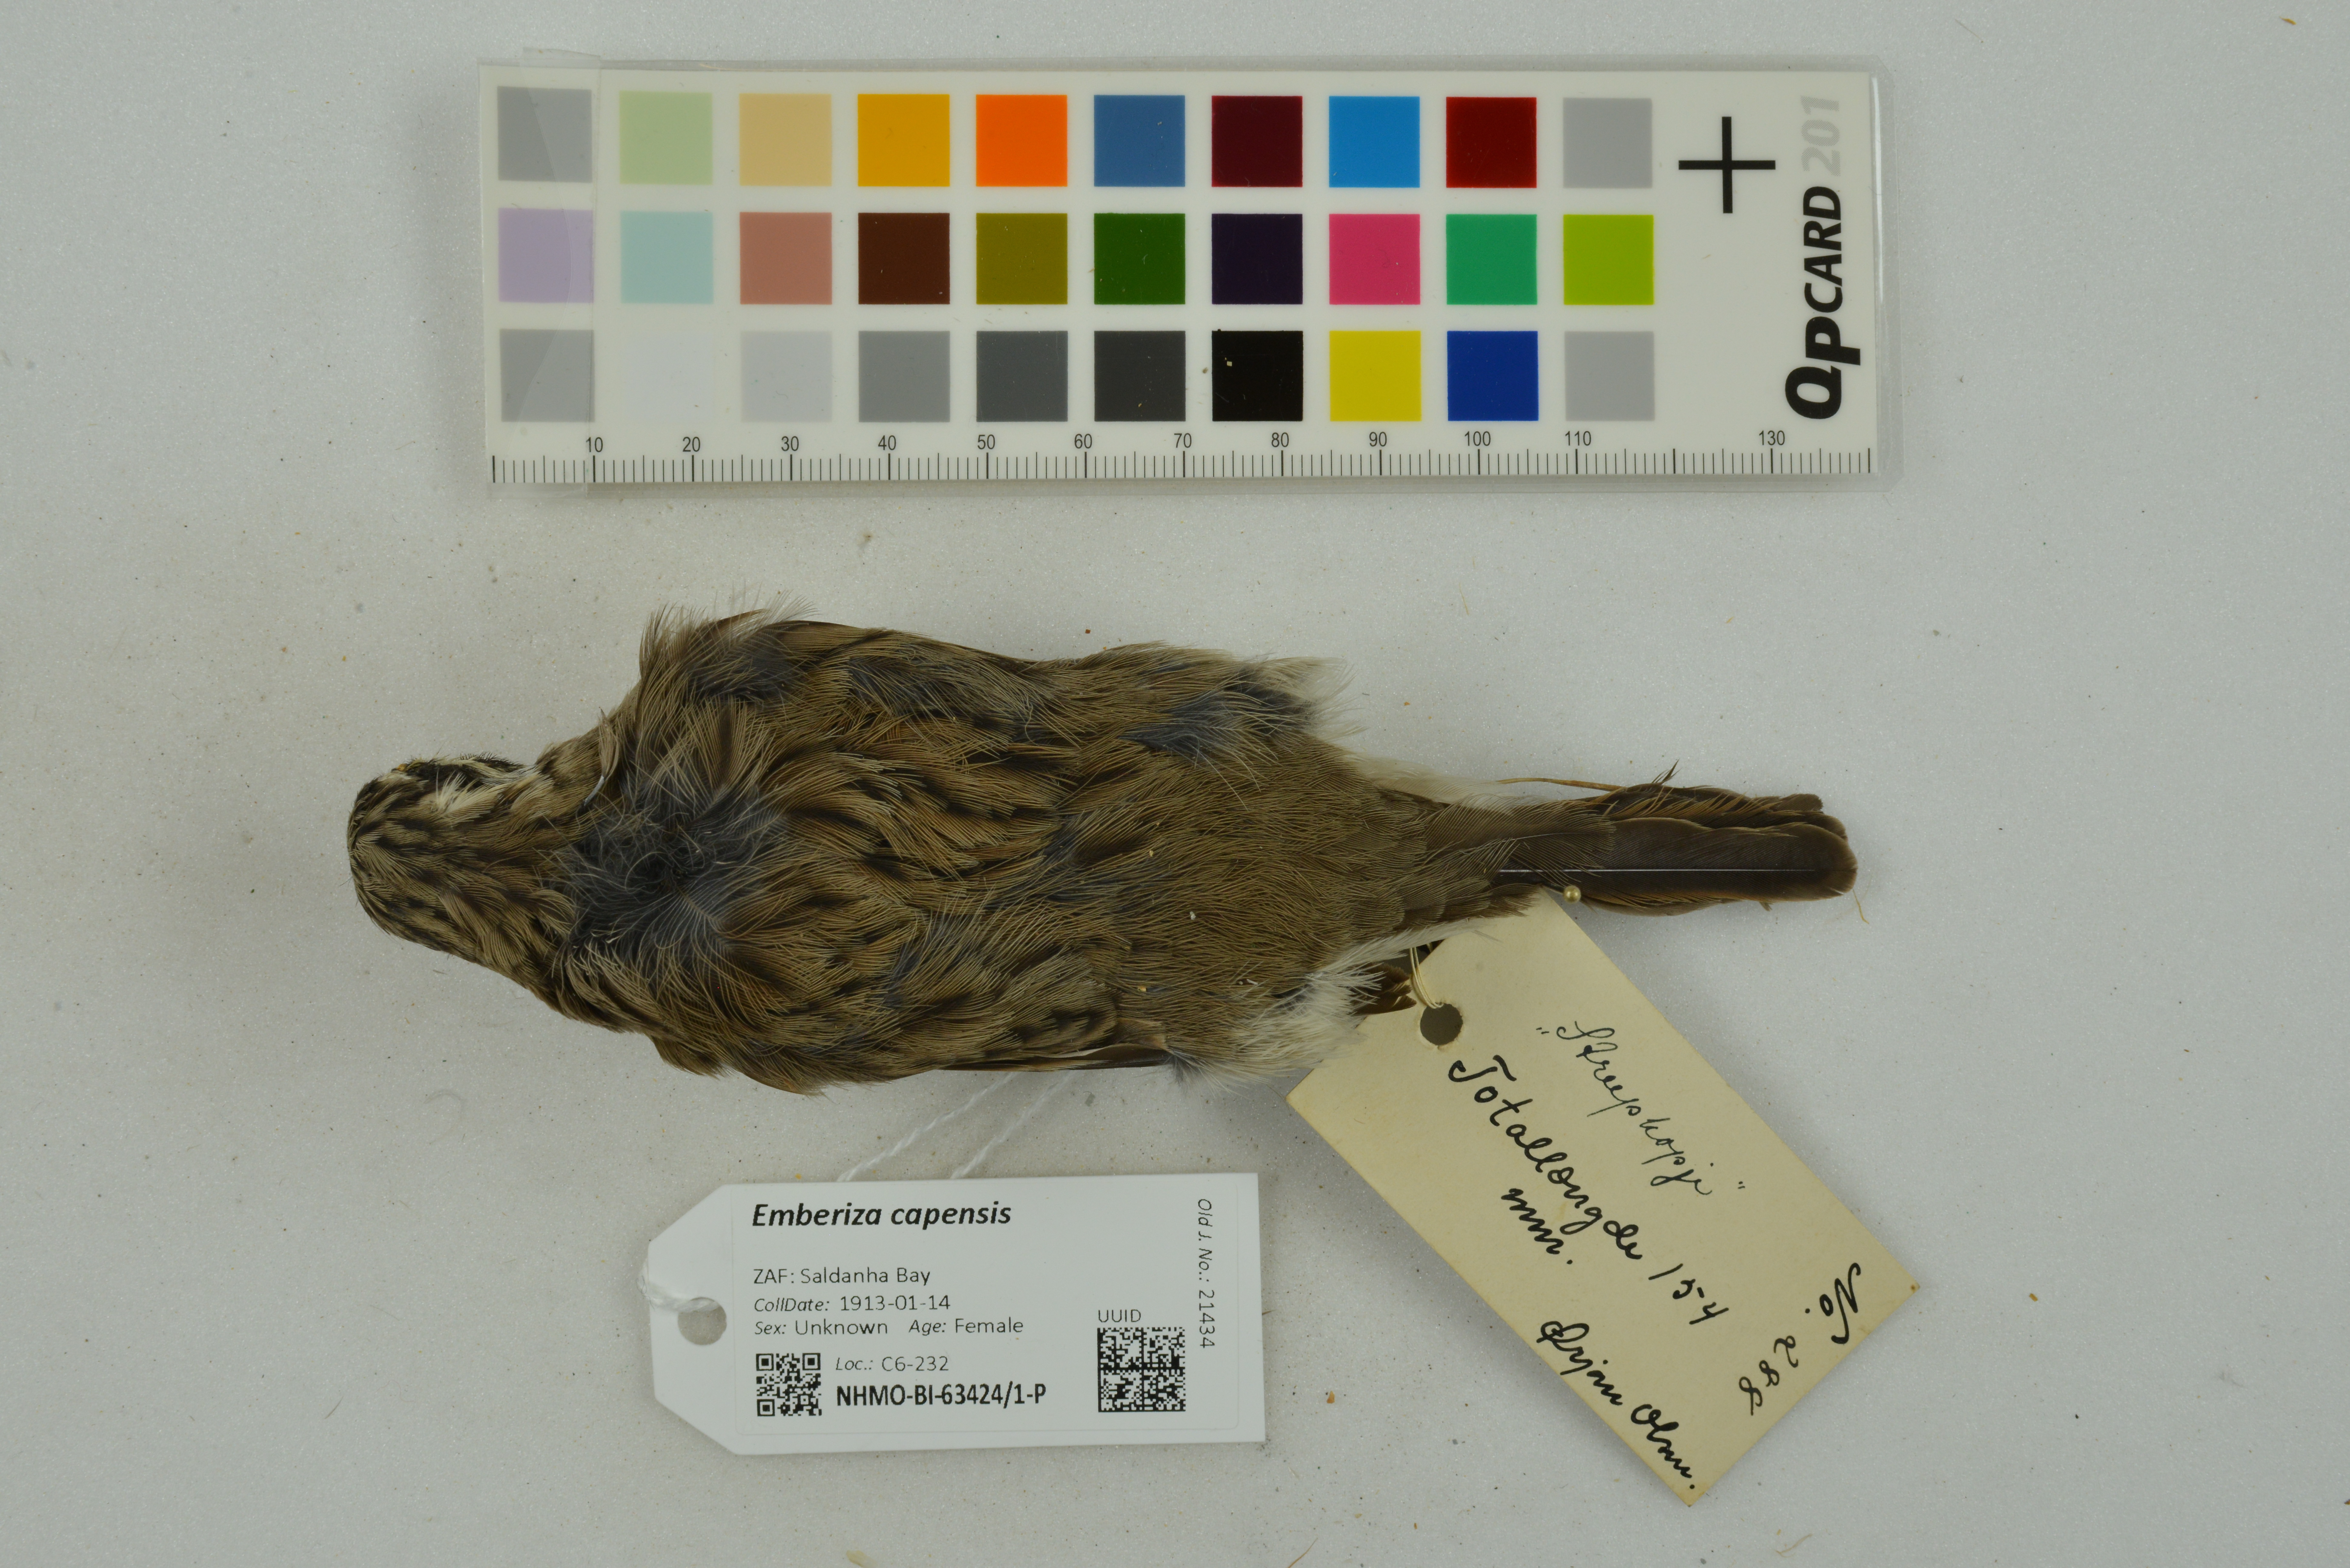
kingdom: Animalia
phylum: Chordata
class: Aves
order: Passeriformes
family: Emberizidae
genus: Emberiza
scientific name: Emberiza capensis
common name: Cape bunting
